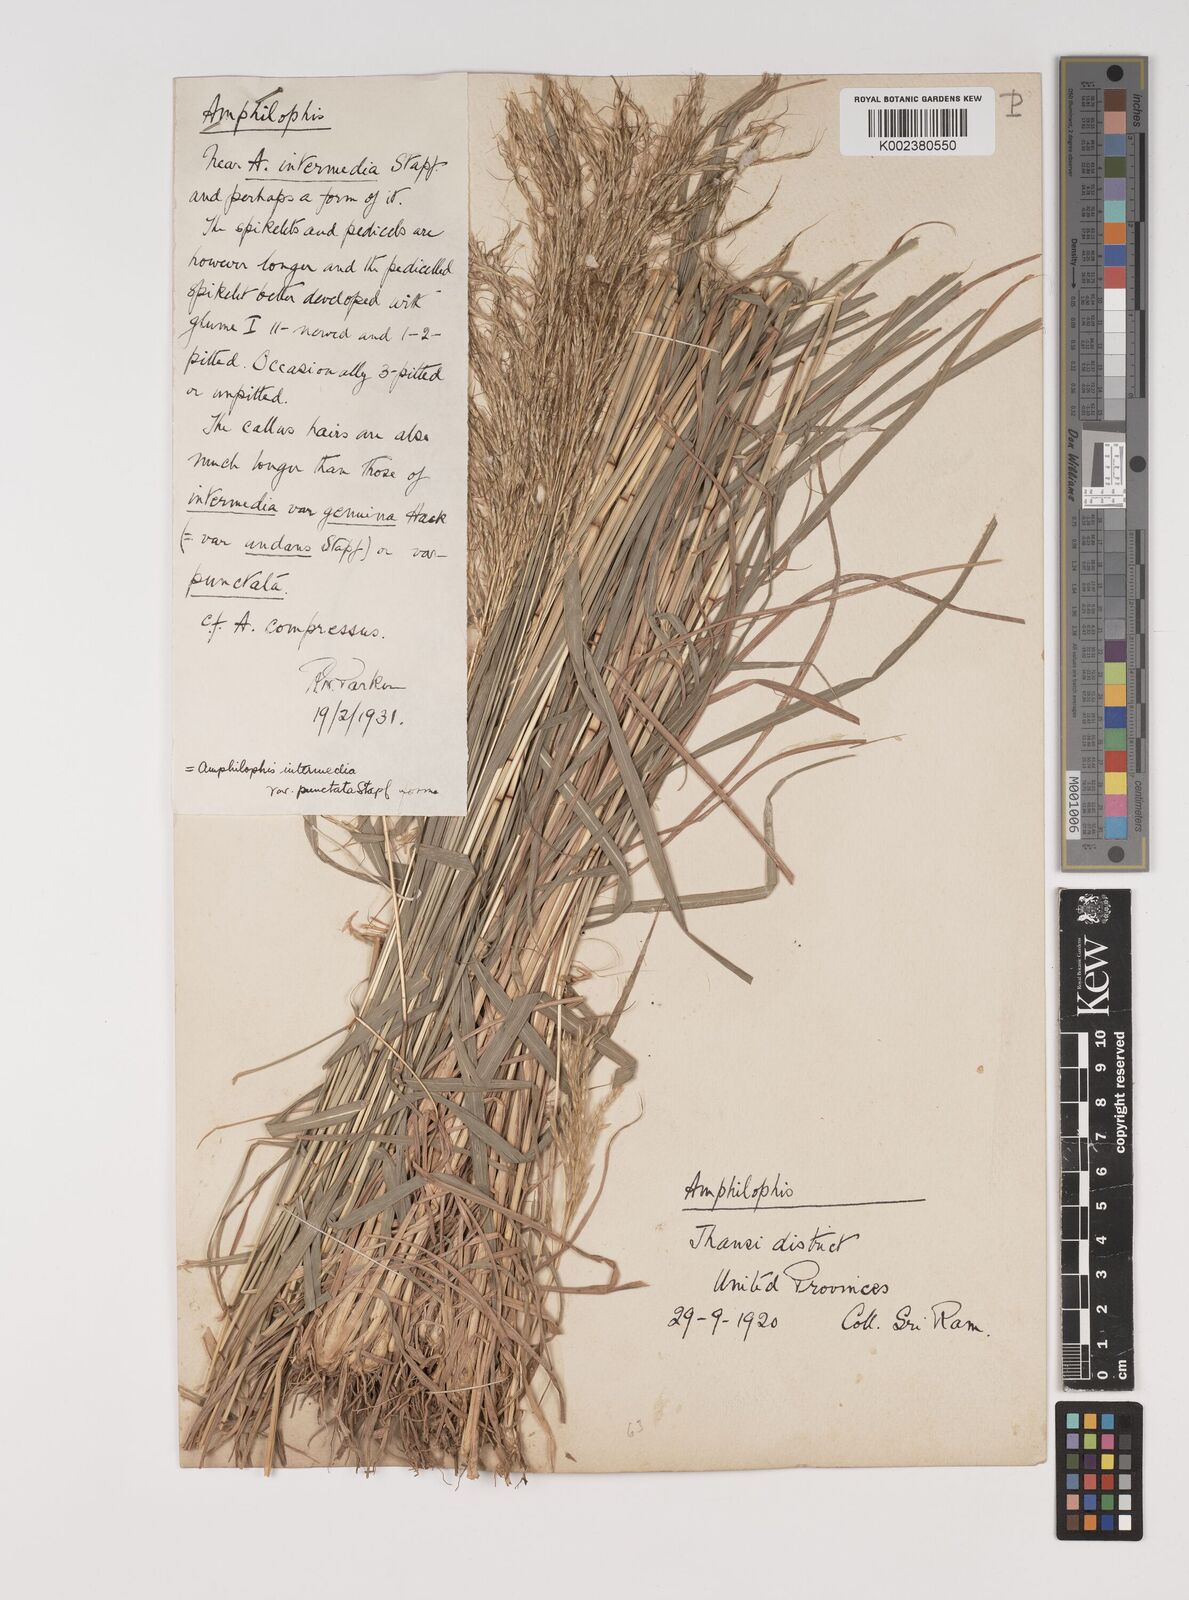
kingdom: Plantae
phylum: Tracheophyta
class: Liliopsida
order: Poales
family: Poaceae
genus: Bothriochloa
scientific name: Bothriochloa bladhii
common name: Caucasian bluestem
